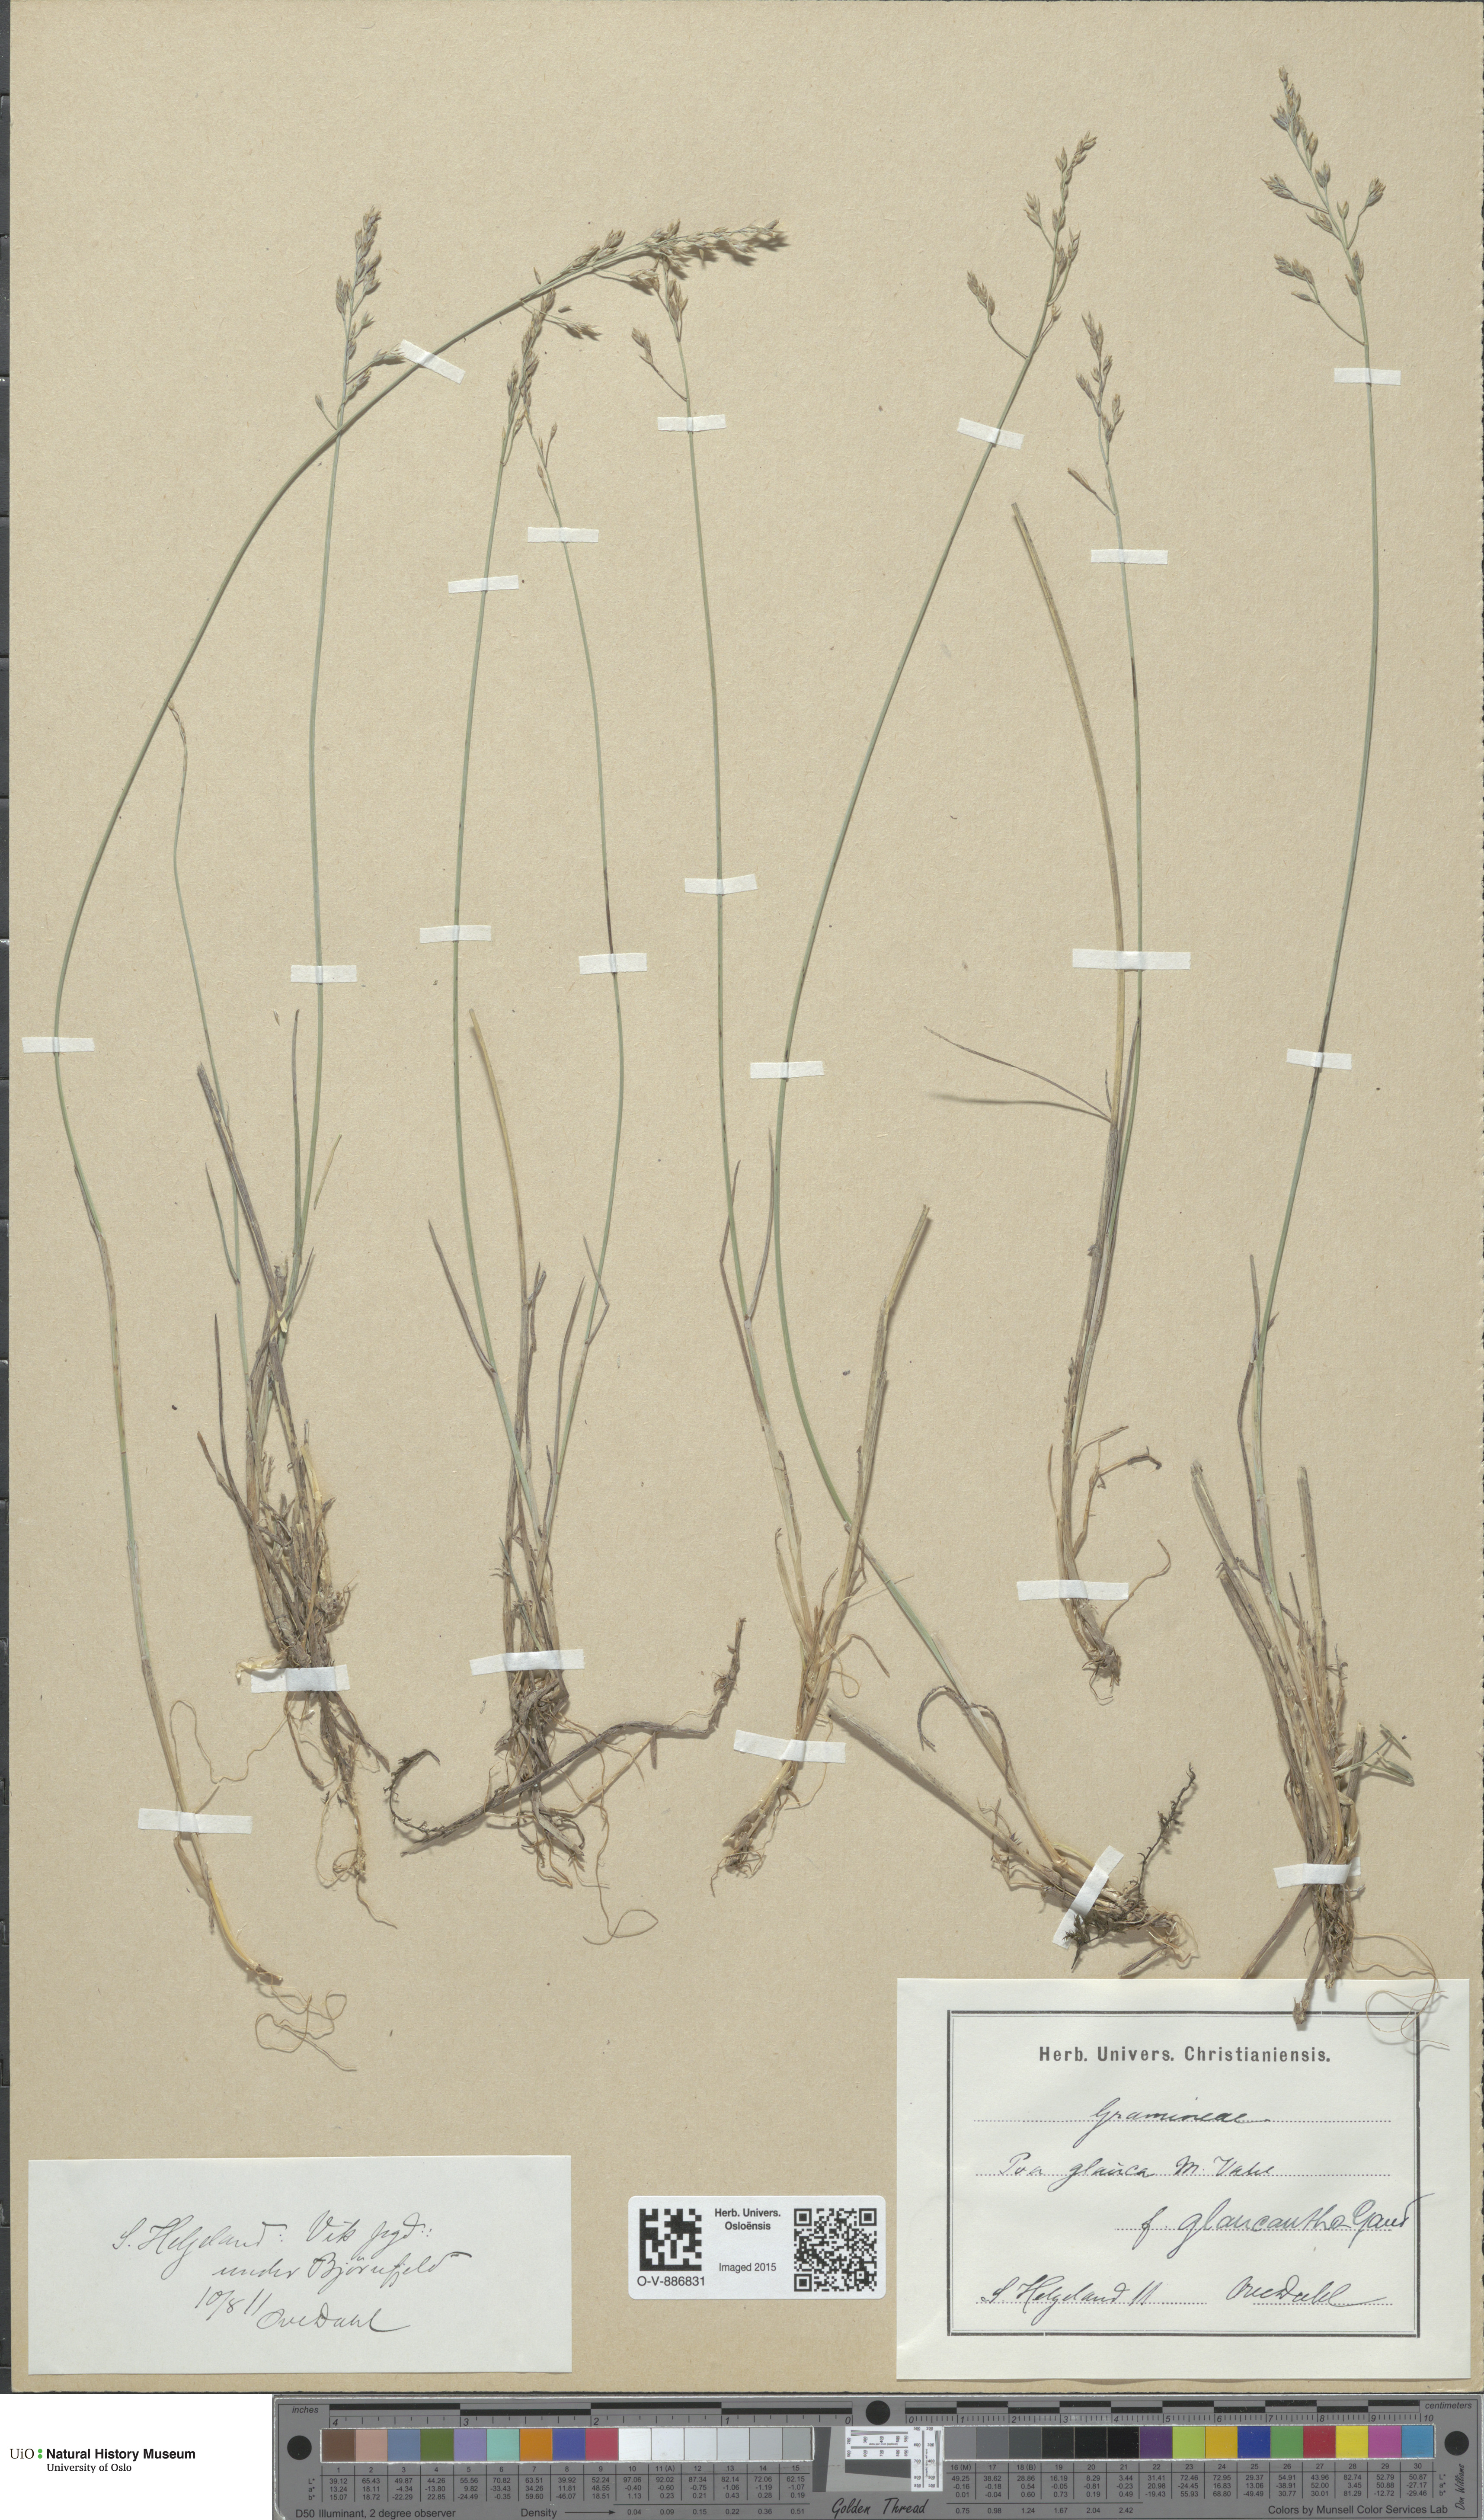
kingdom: Plantae
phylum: Tracheophyta
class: Liliopsida
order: Poales
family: Poaceae
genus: Poa
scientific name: Poa nemoralis
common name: Wood bluegrass
